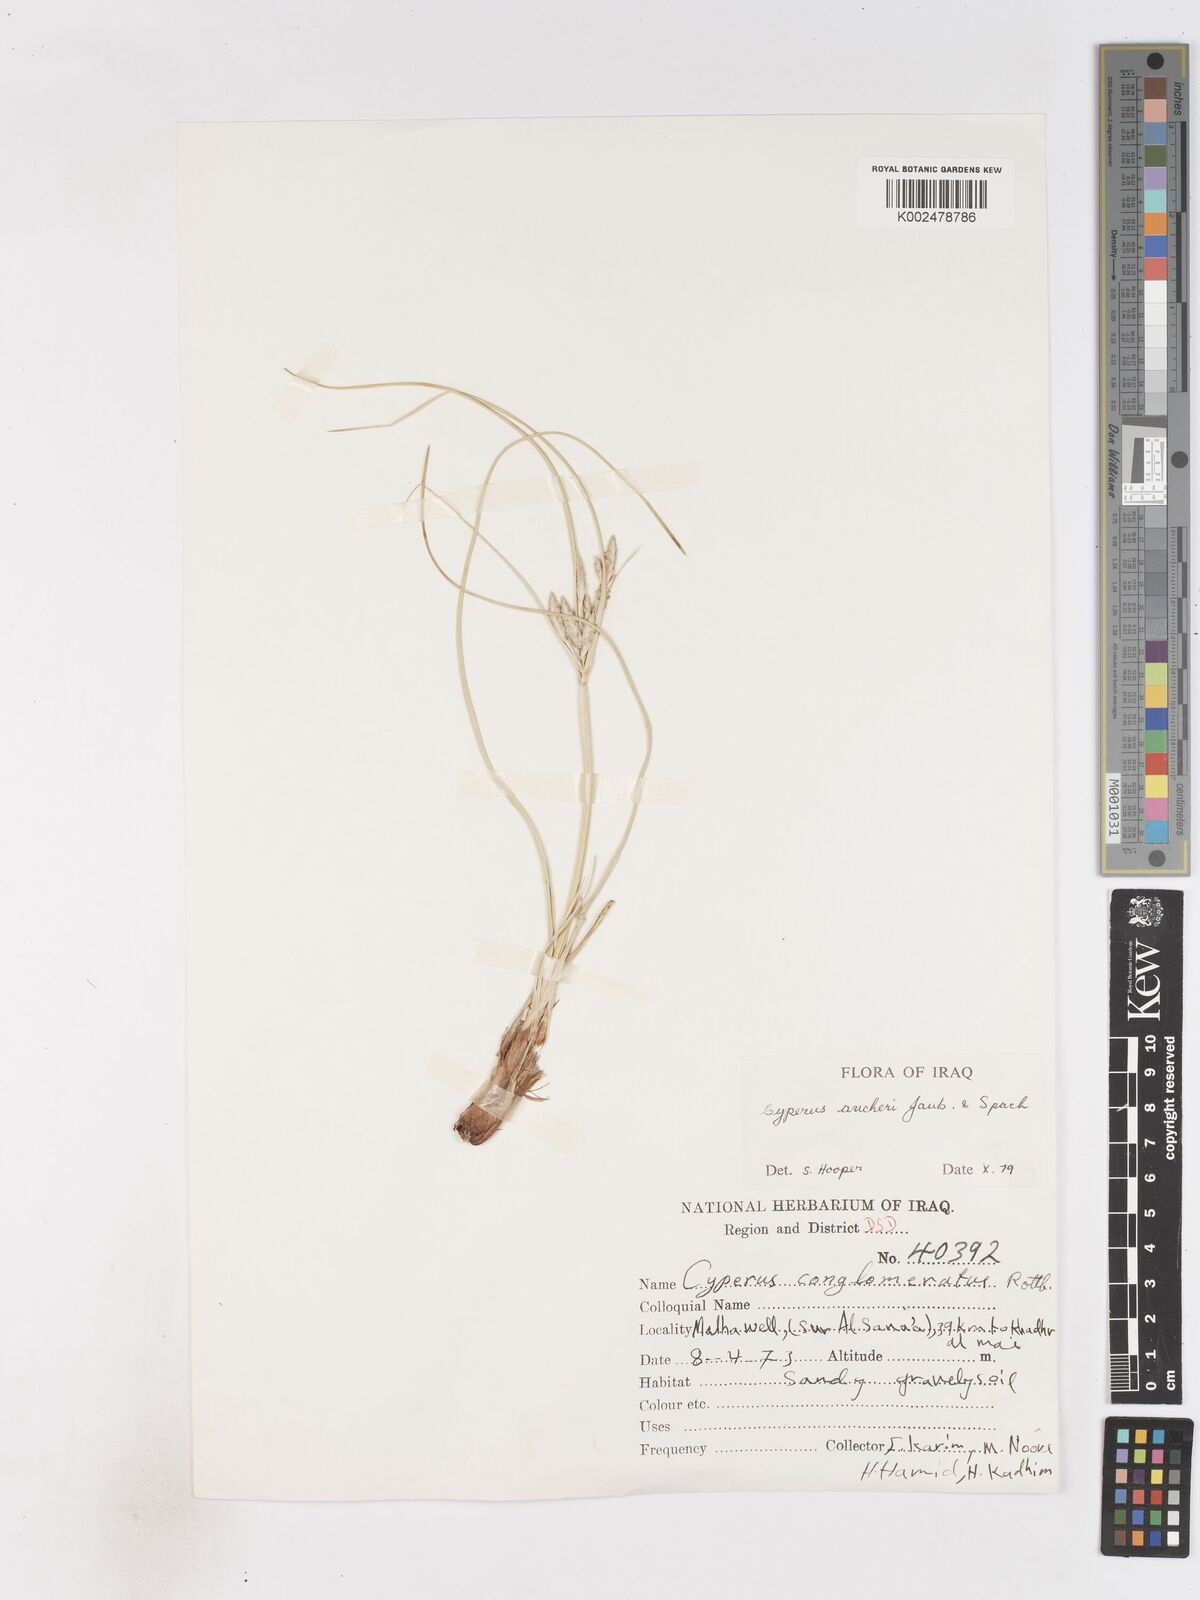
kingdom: Plantae
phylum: Tracheophyta
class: Liliopsida
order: Poales
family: Cyperaceae
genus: Cyperus
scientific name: Cyperus aucheri
